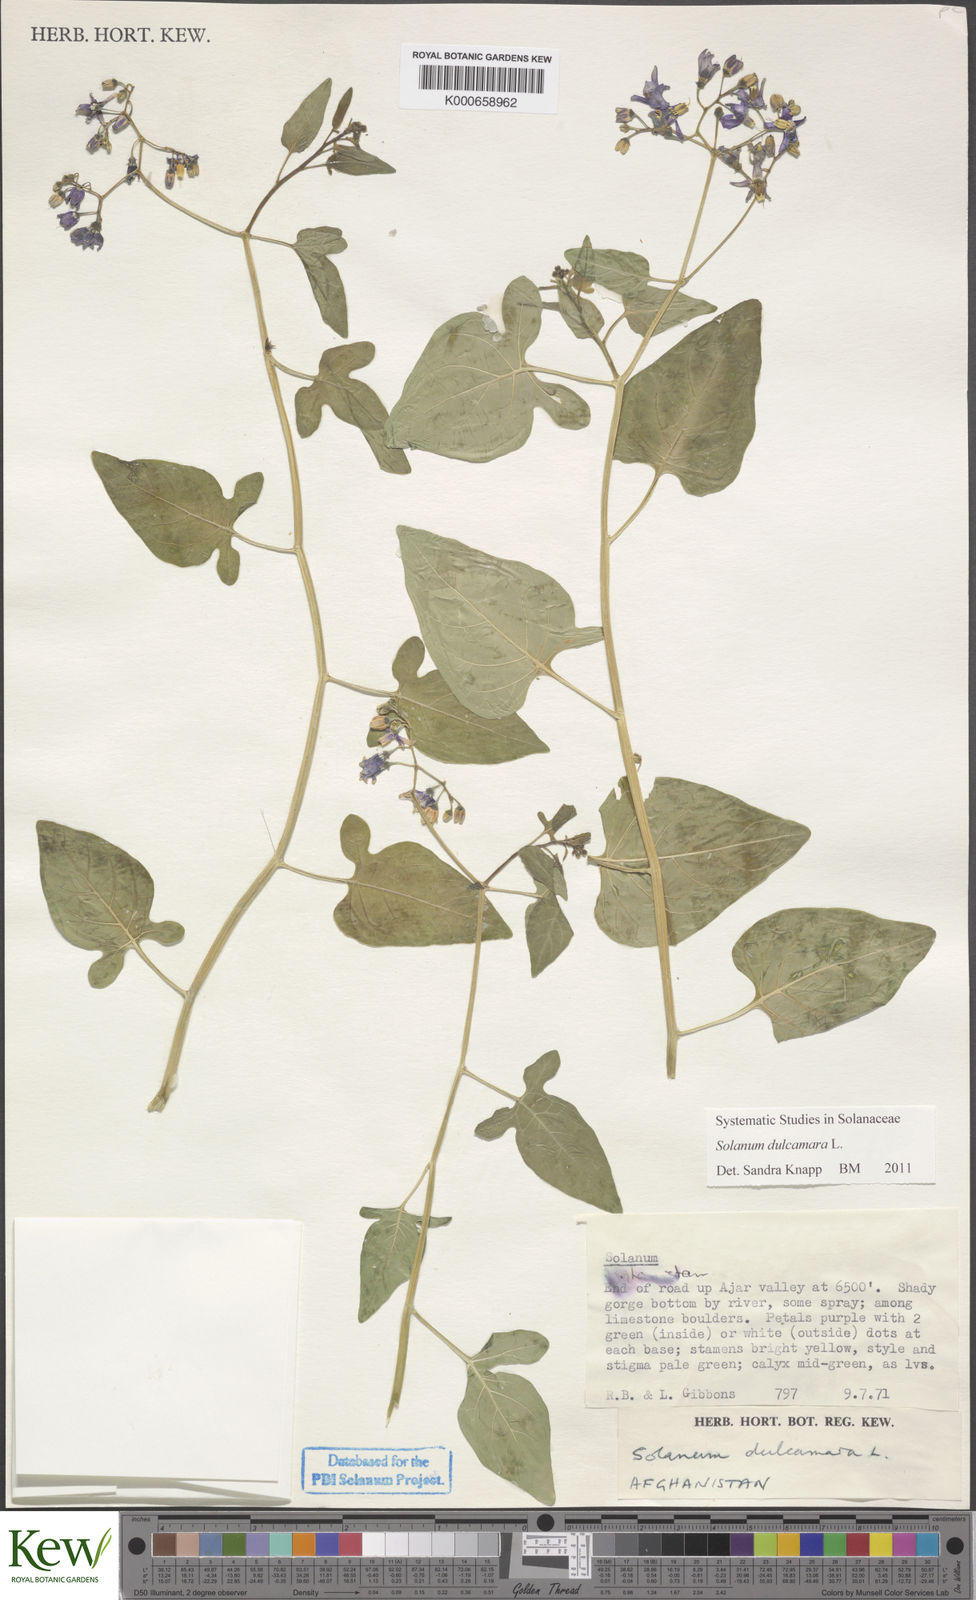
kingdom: Plantae
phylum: Tracheophyta
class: Magnoliopsida
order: Solanales
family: Solanaceae
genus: Solanum
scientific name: Solanum dulcamara
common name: Climbing nightshade
